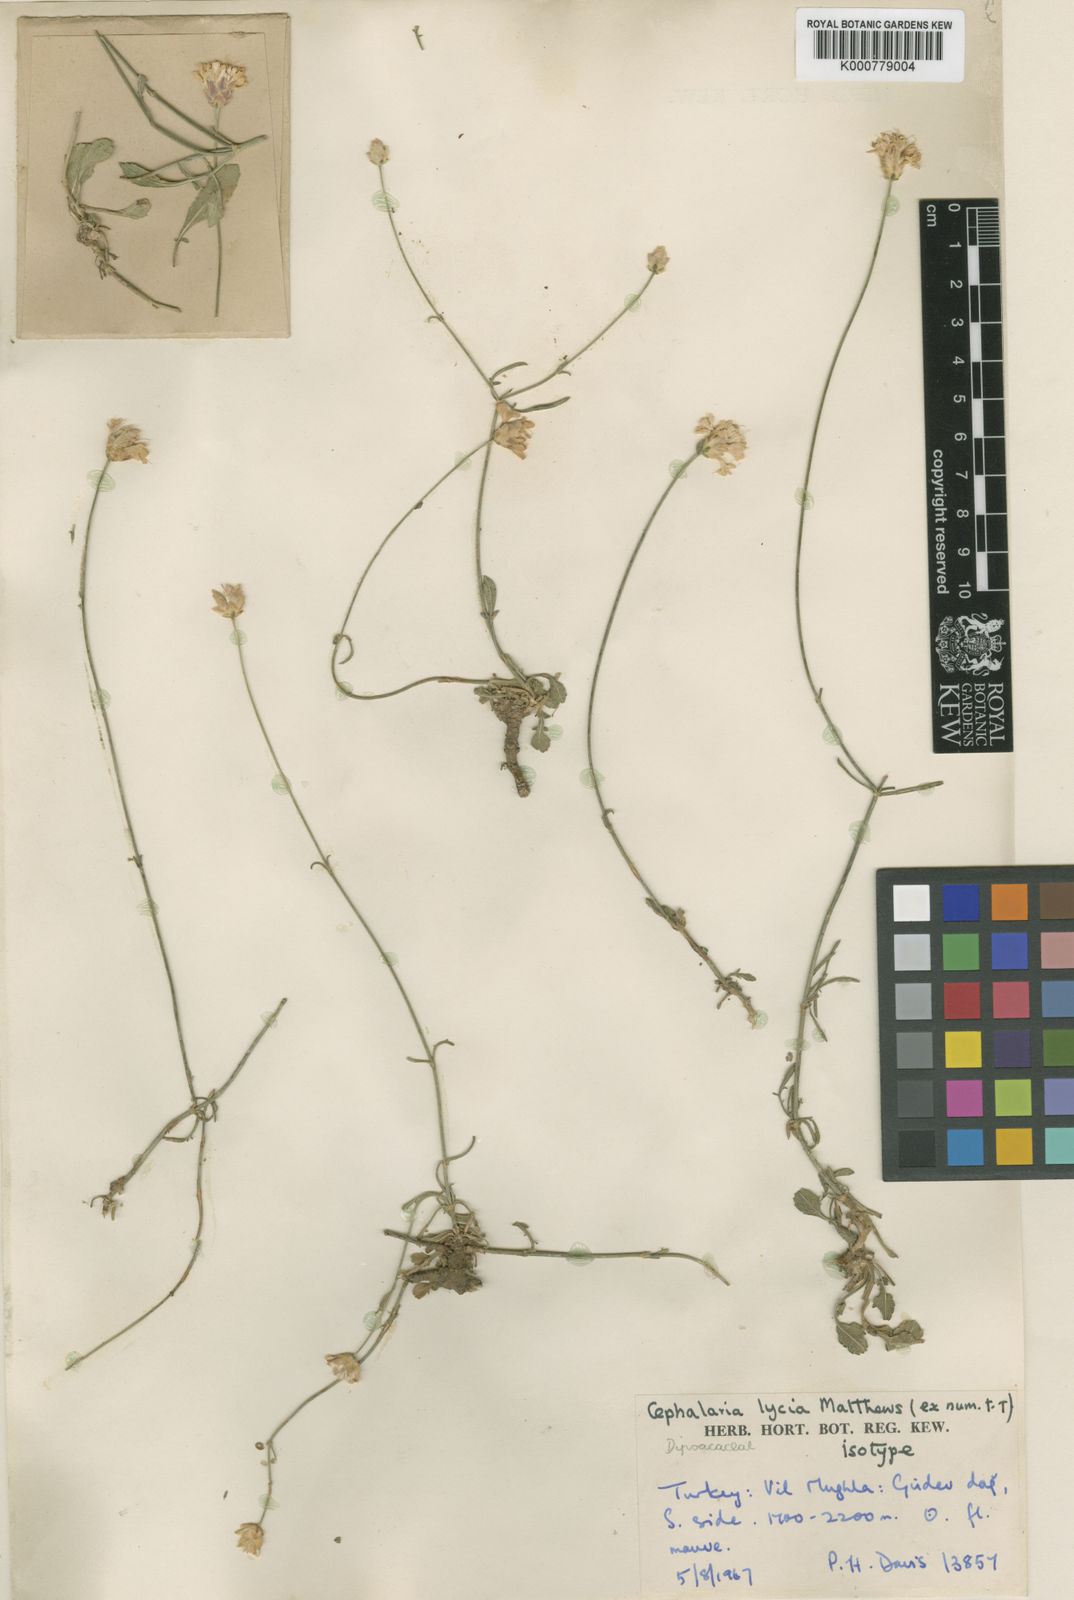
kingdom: Plantae
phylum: Tracheophyta
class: Magnoliopsida
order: Dipsacales
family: Caprifoliaceae
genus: Cephalaria
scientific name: Cephalaria lycica
